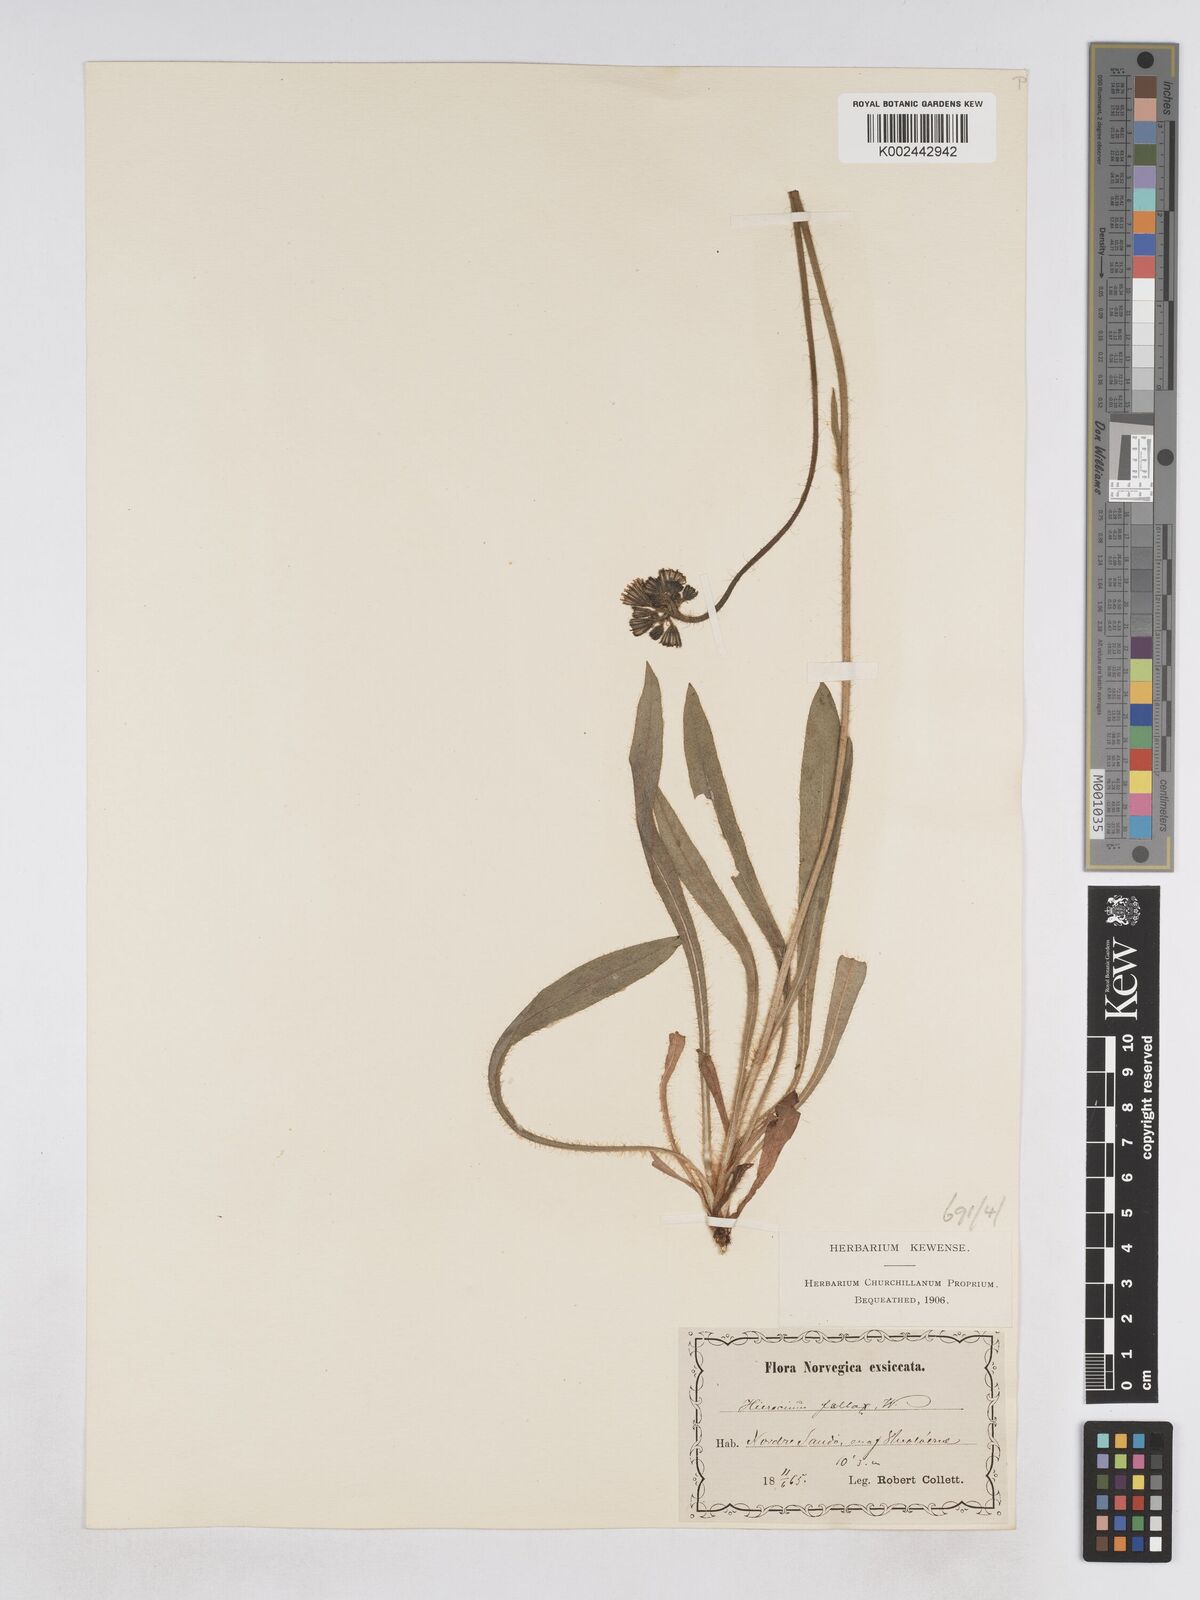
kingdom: Plantae
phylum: Tracheophyta
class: Magnoliopsida
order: Asterales
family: Asteraceae
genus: Pilosella
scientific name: Pilosella fallax
